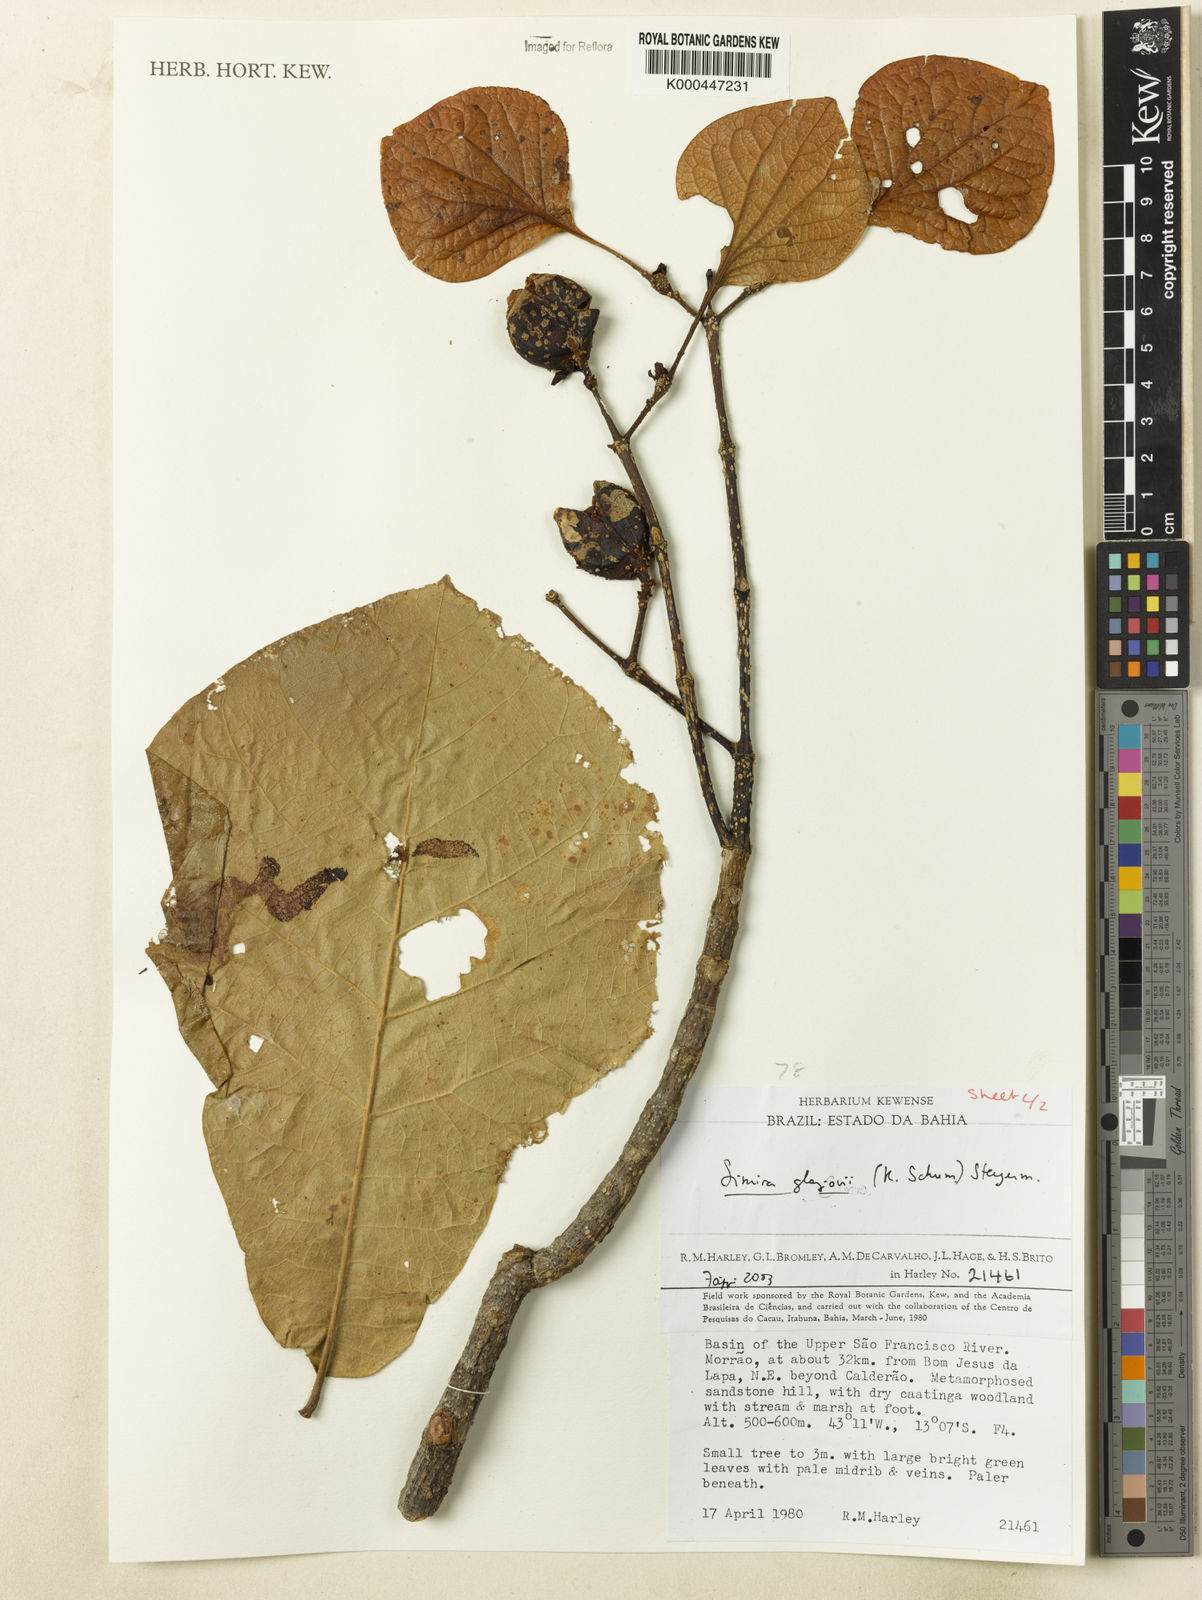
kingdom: Plantae
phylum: Tracheophyta
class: Magnoliopsida
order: Gentianales
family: Rubiaceae
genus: Pogonopus
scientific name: Pogonopus
